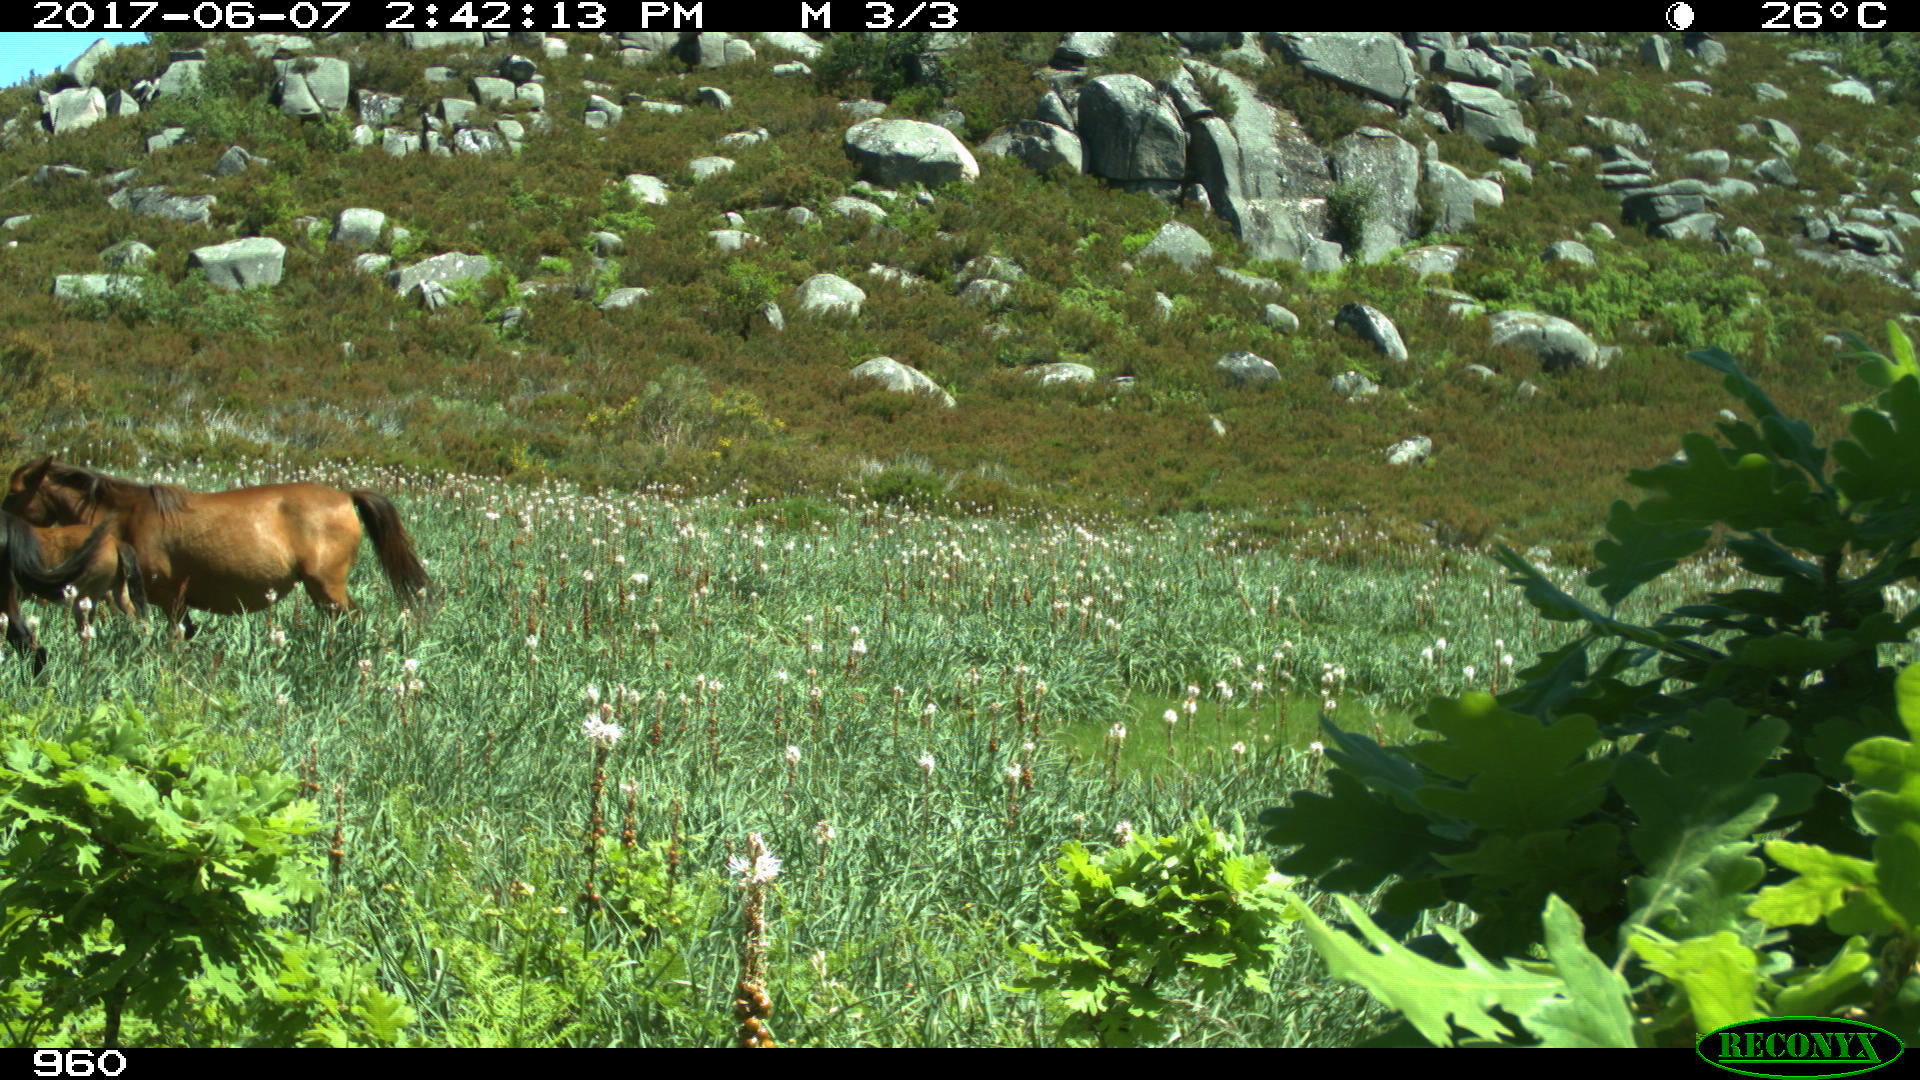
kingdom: Animalia
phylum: Chordata
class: Mammalia
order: Perissodactyla
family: Equidae
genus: Equus
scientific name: Equus caballus
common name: Horse
